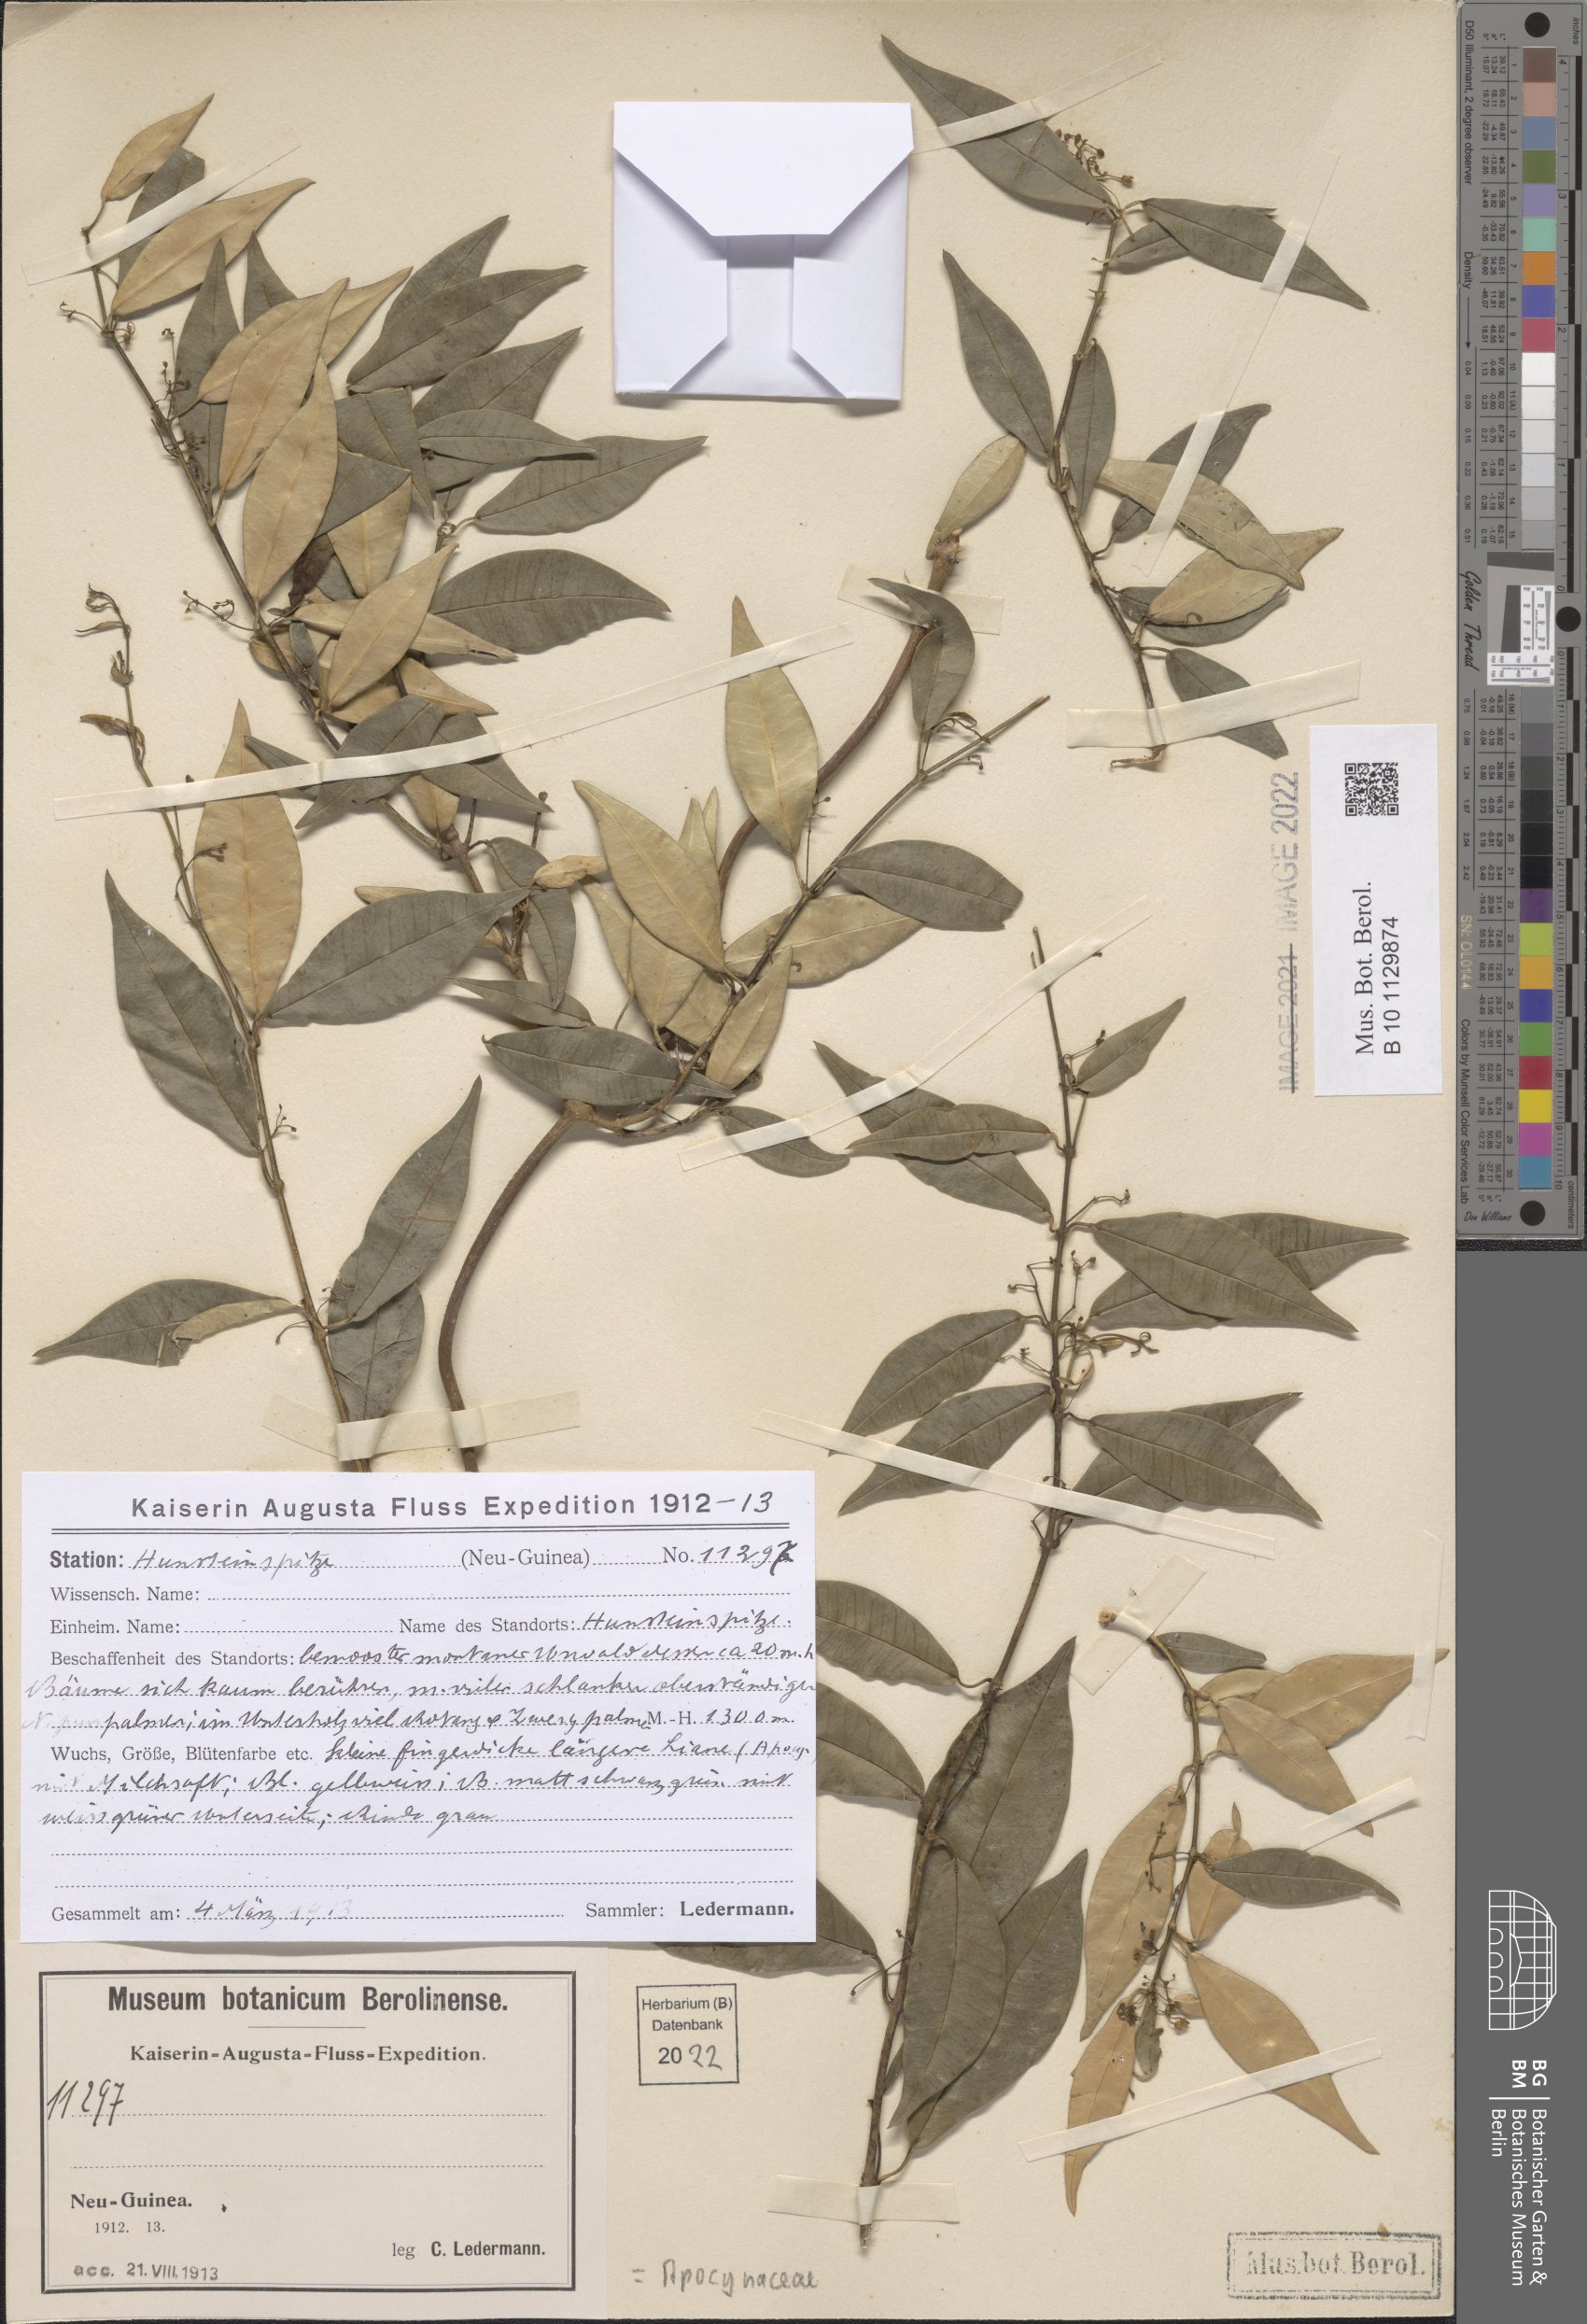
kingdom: Plantae
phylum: Tracheophyta
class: Magnoliopsida
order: Gentianales
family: Apocynaceae
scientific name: Apocynaceae
